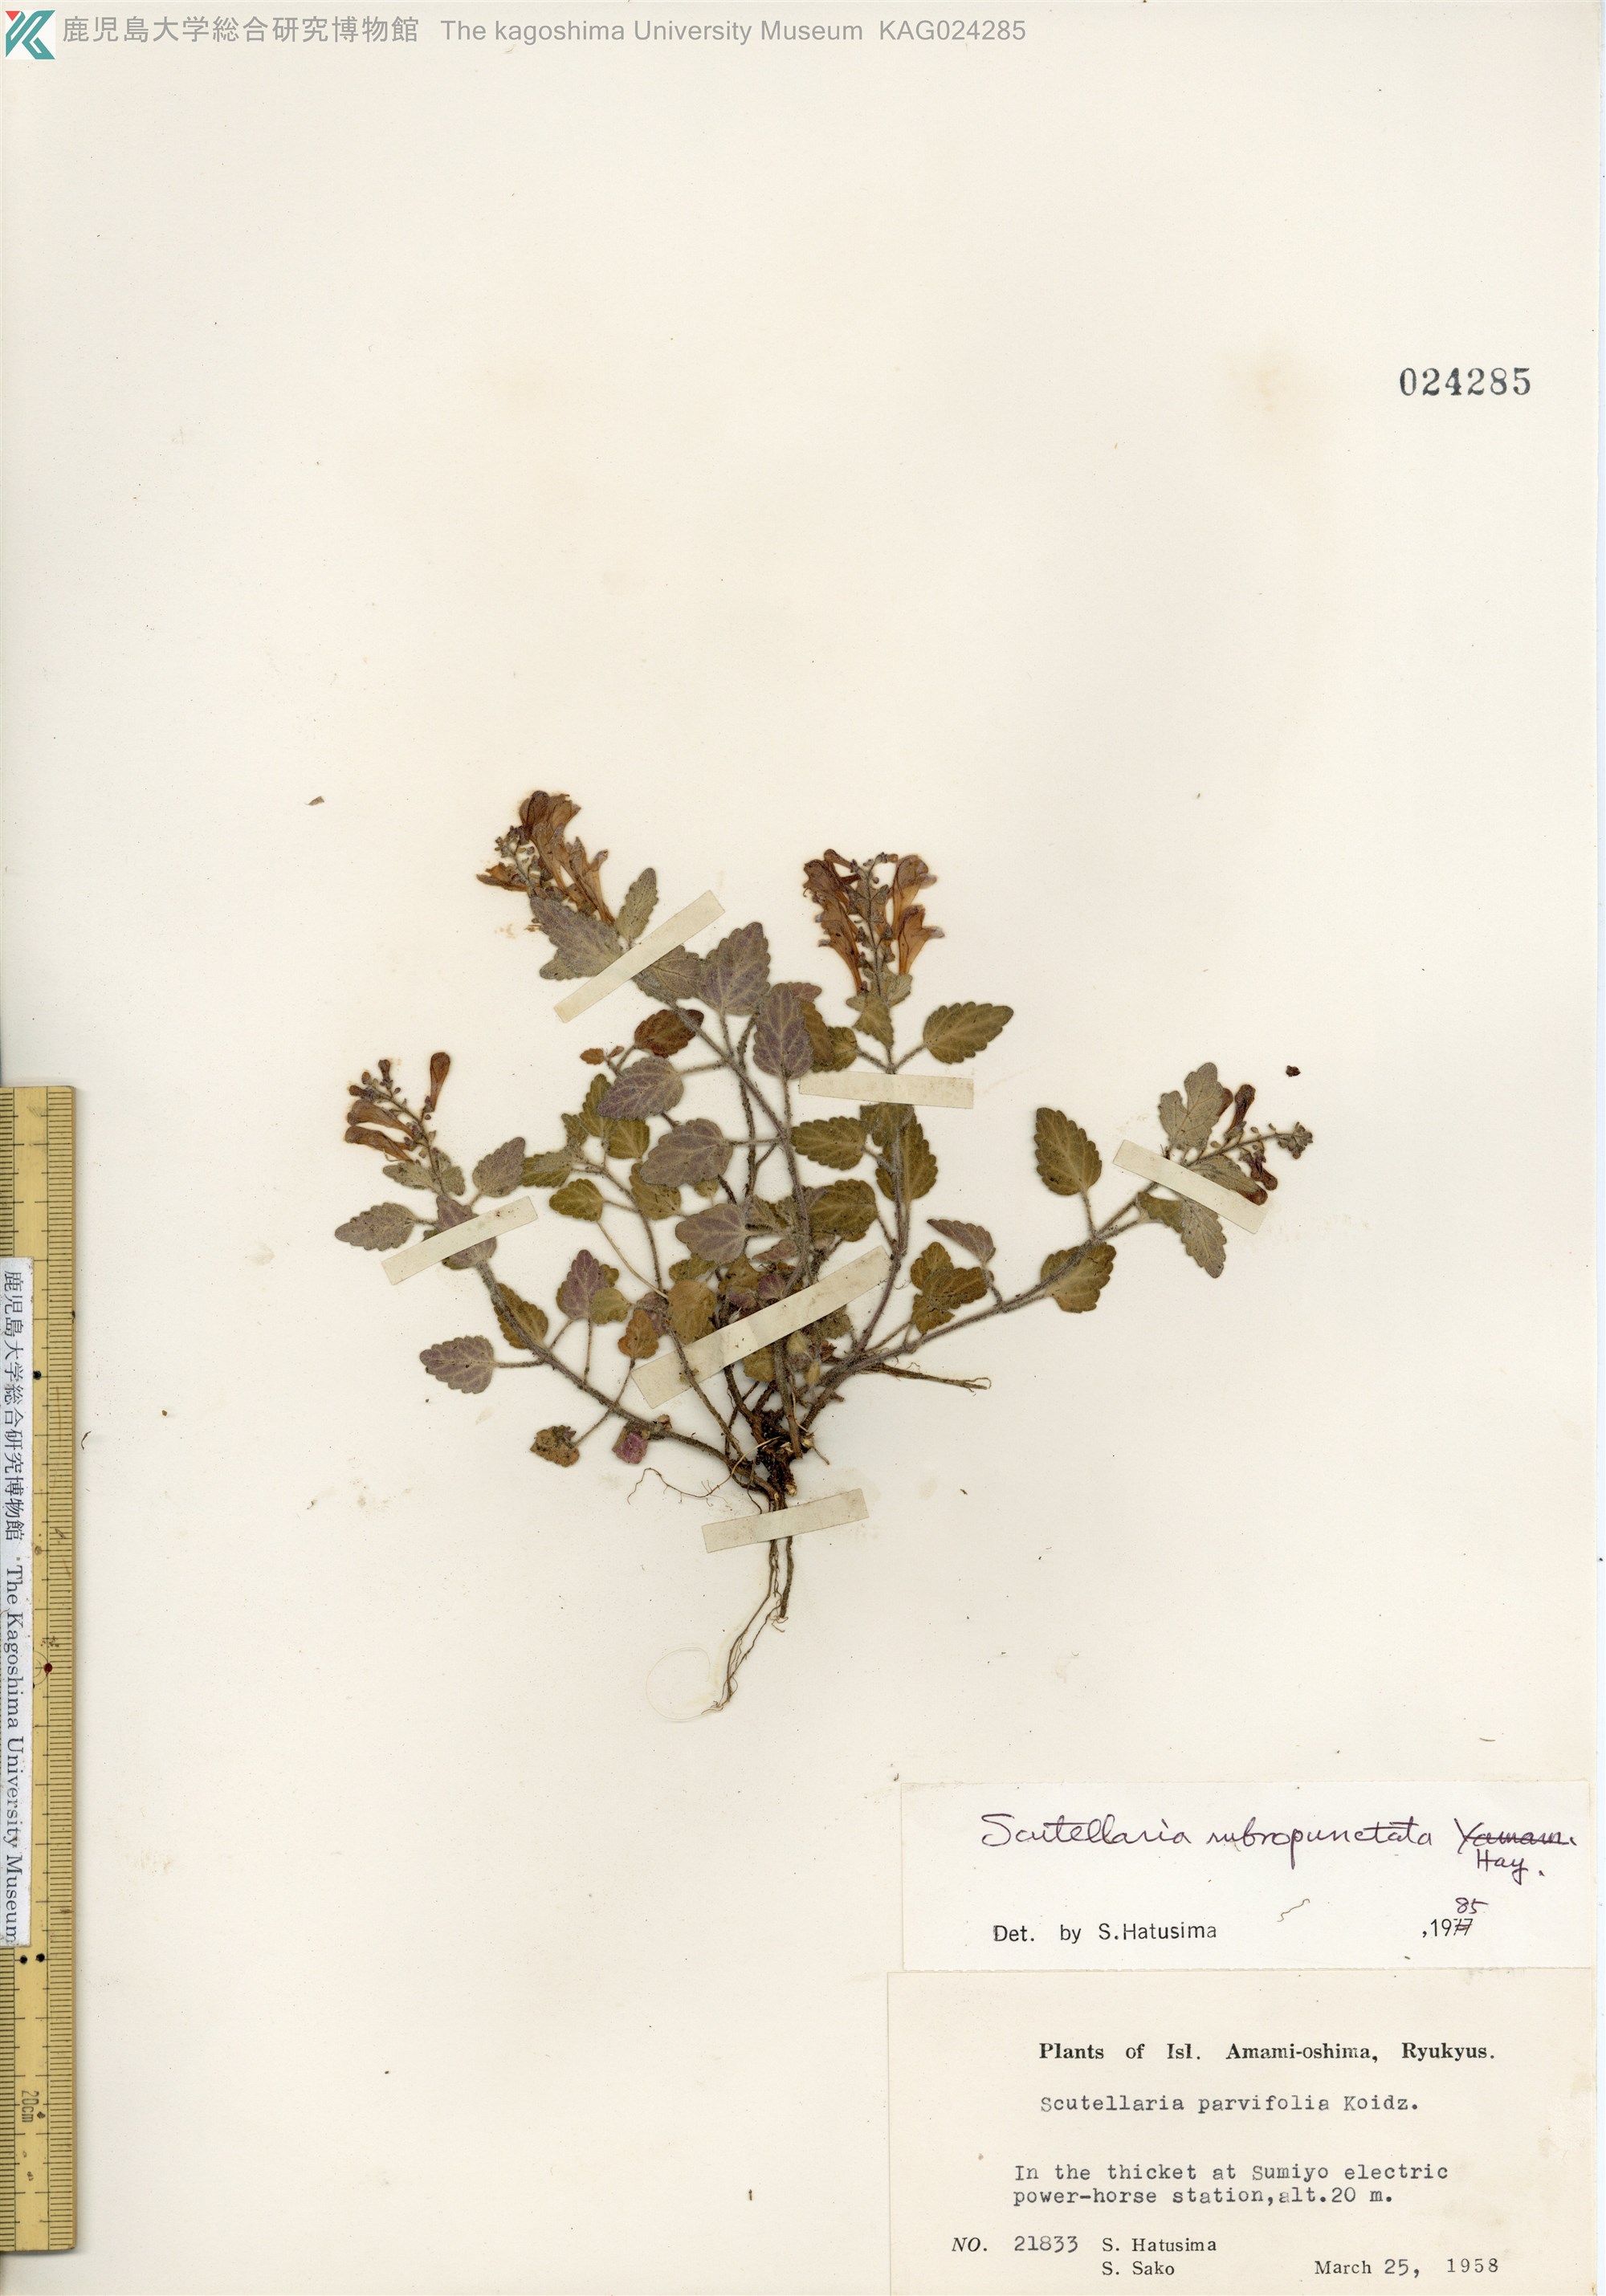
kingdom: Plantae
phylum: Tracheophyta
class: Magnoliopsida
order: Lamiales
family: Lamiaceae
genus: Scutellaria
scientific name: Scutellaria rubropunctata
